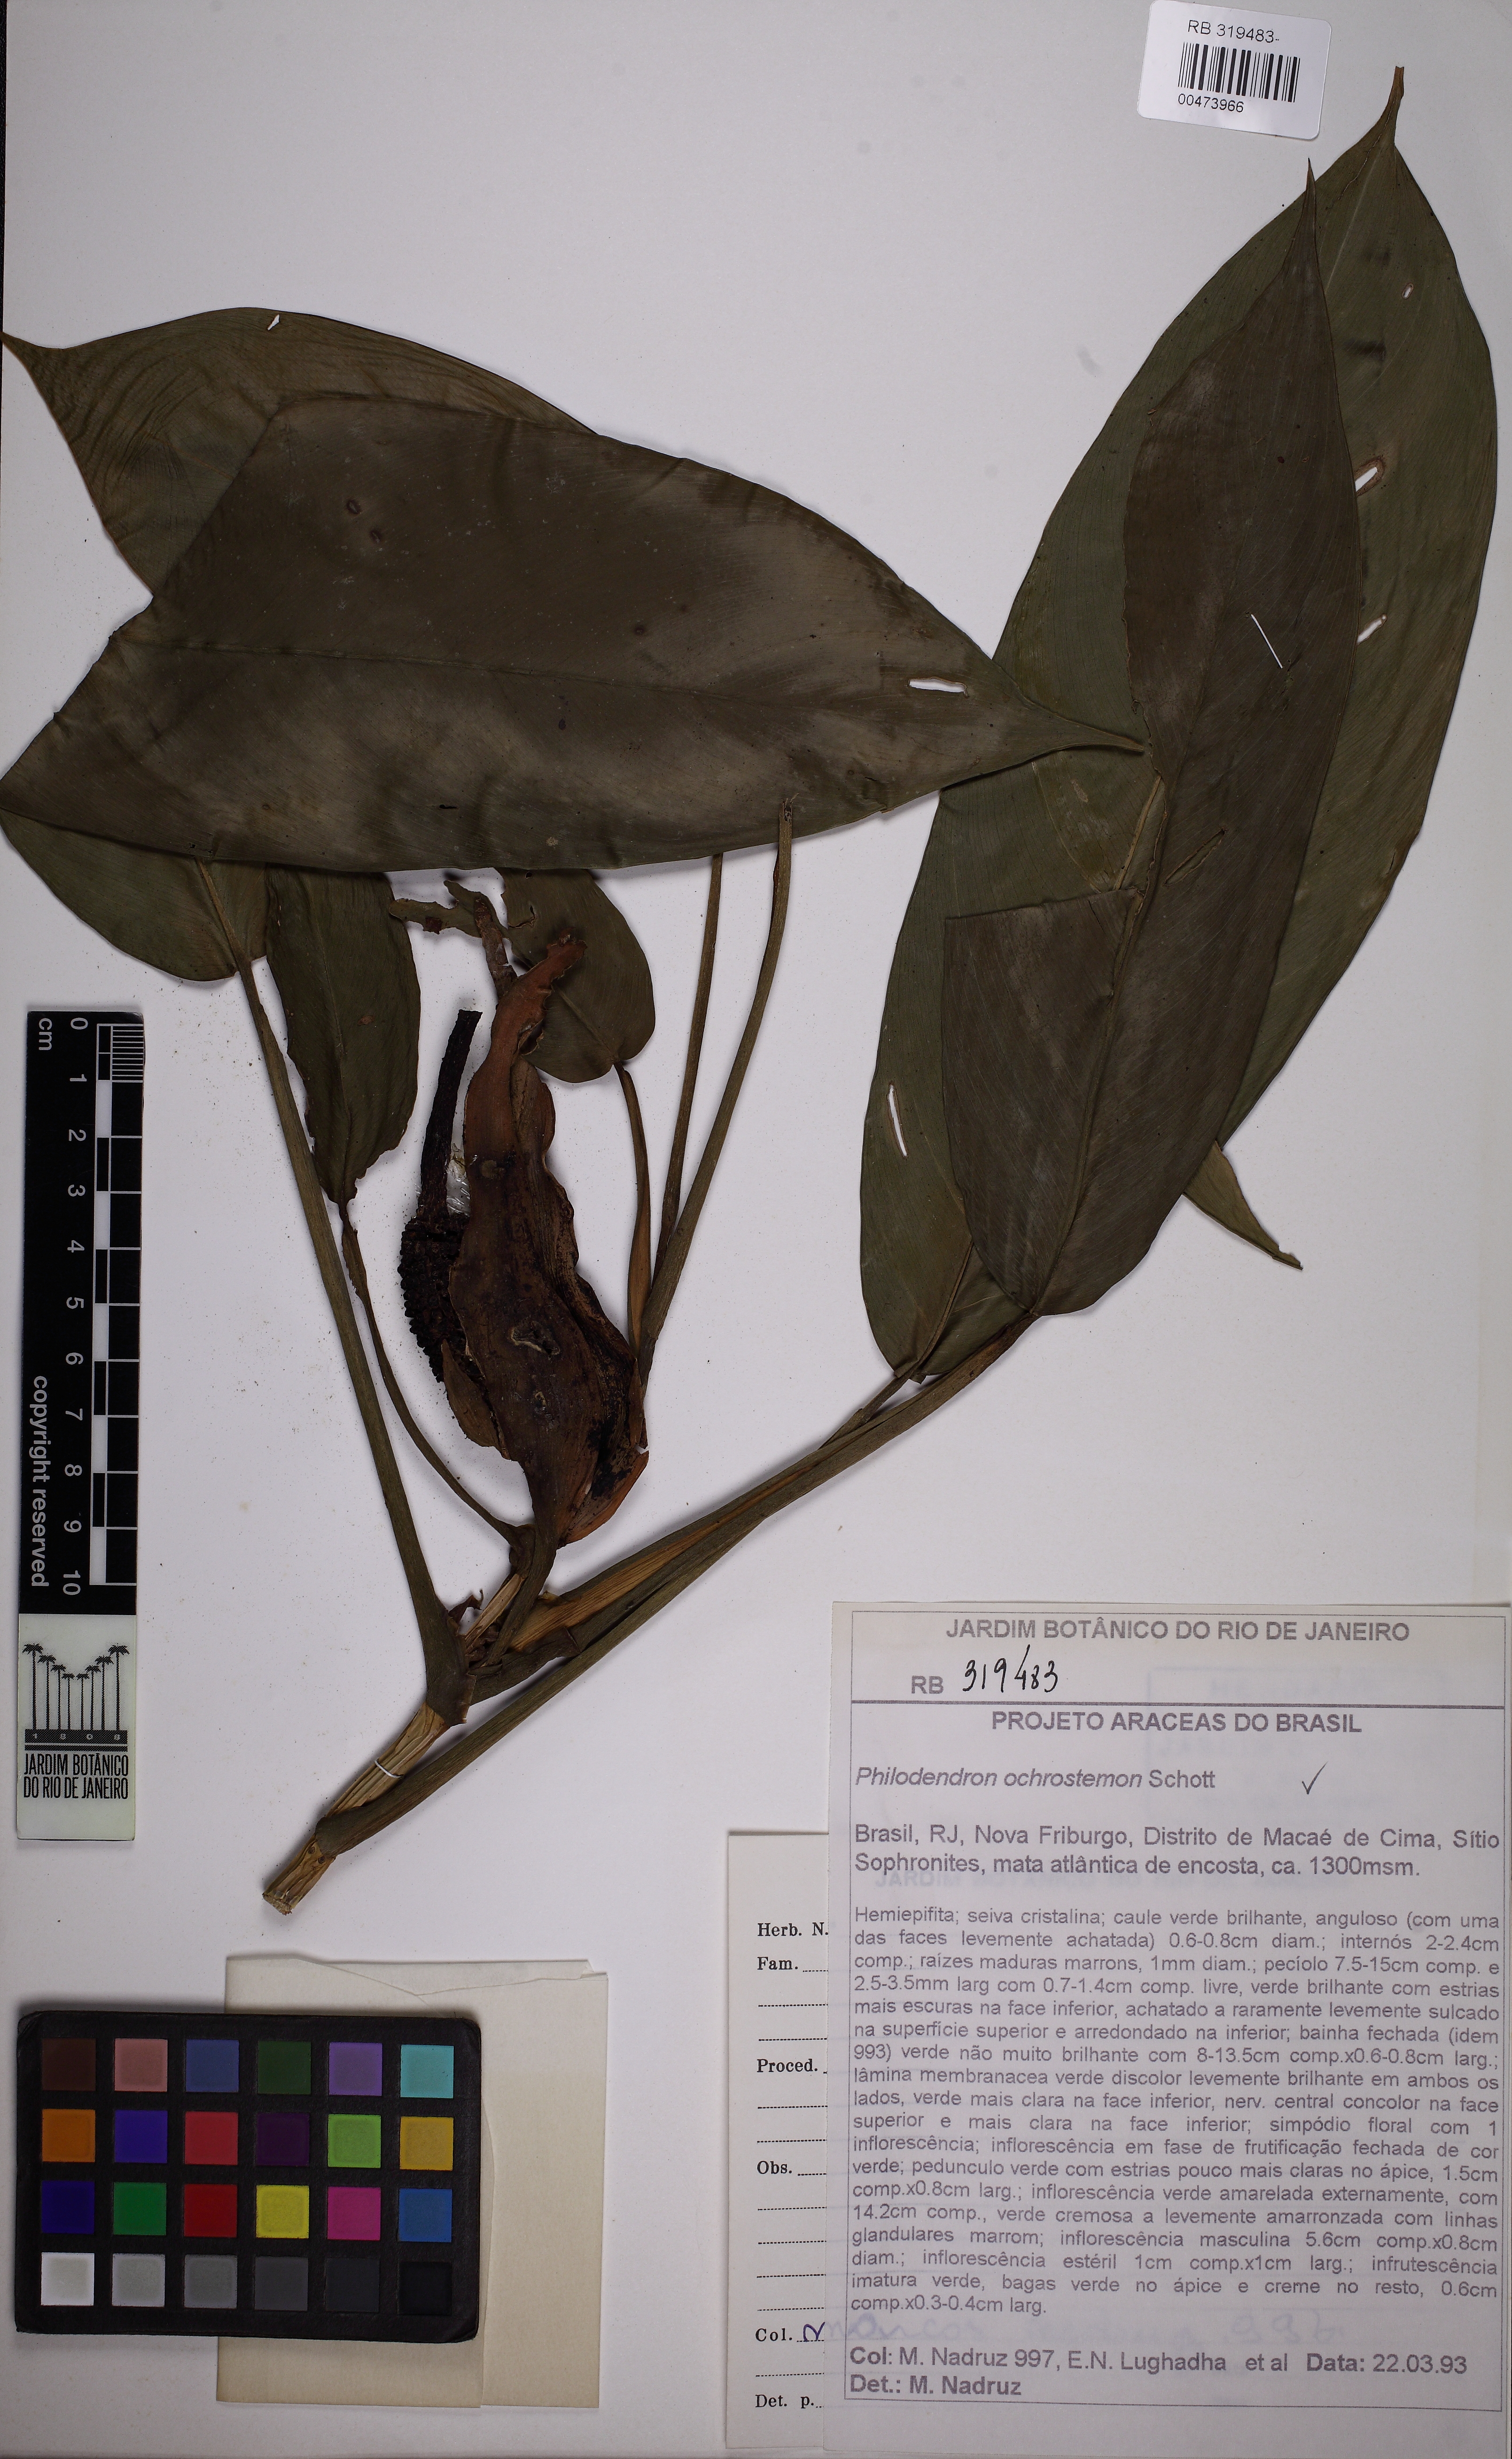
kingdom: Plantae
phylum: Tracheophyta
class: Liliopsida
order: Alismatales
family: Araceae
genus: Philodendron
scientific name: Philodendron oblongum
